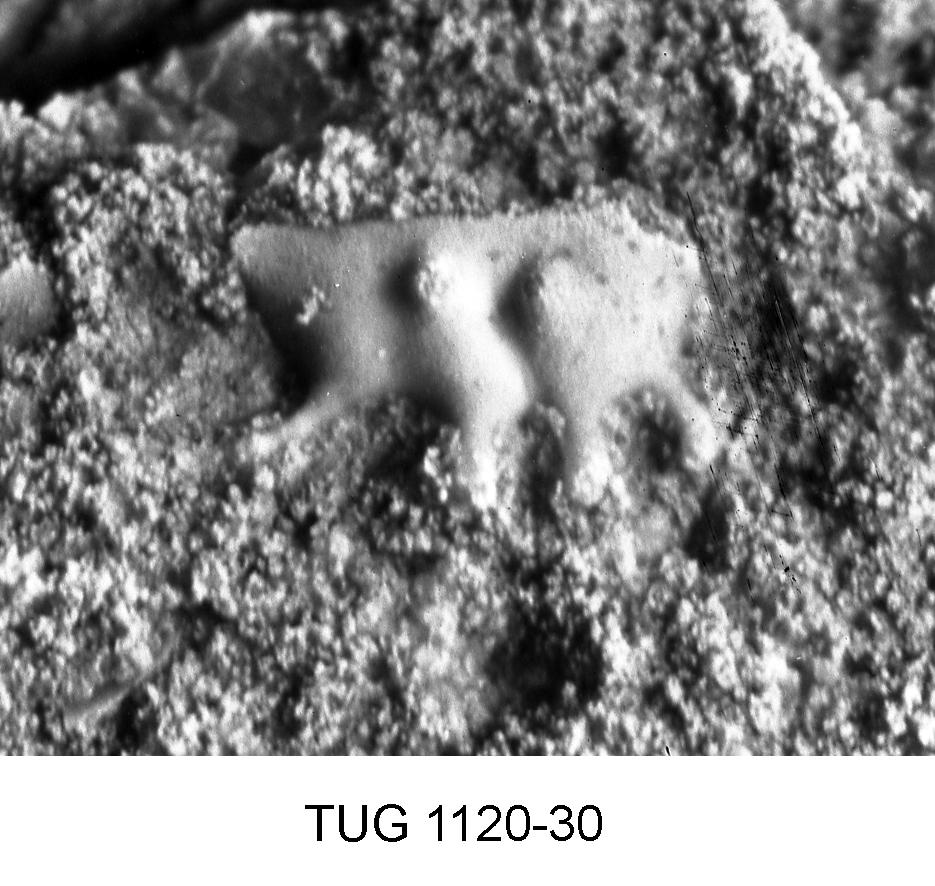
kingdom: Animalia
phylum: Arthropoda
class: Ostracoda
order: Palaeocopida
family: Tetradellidae
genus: Ctenobolbina
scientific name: Ctenobolbina
